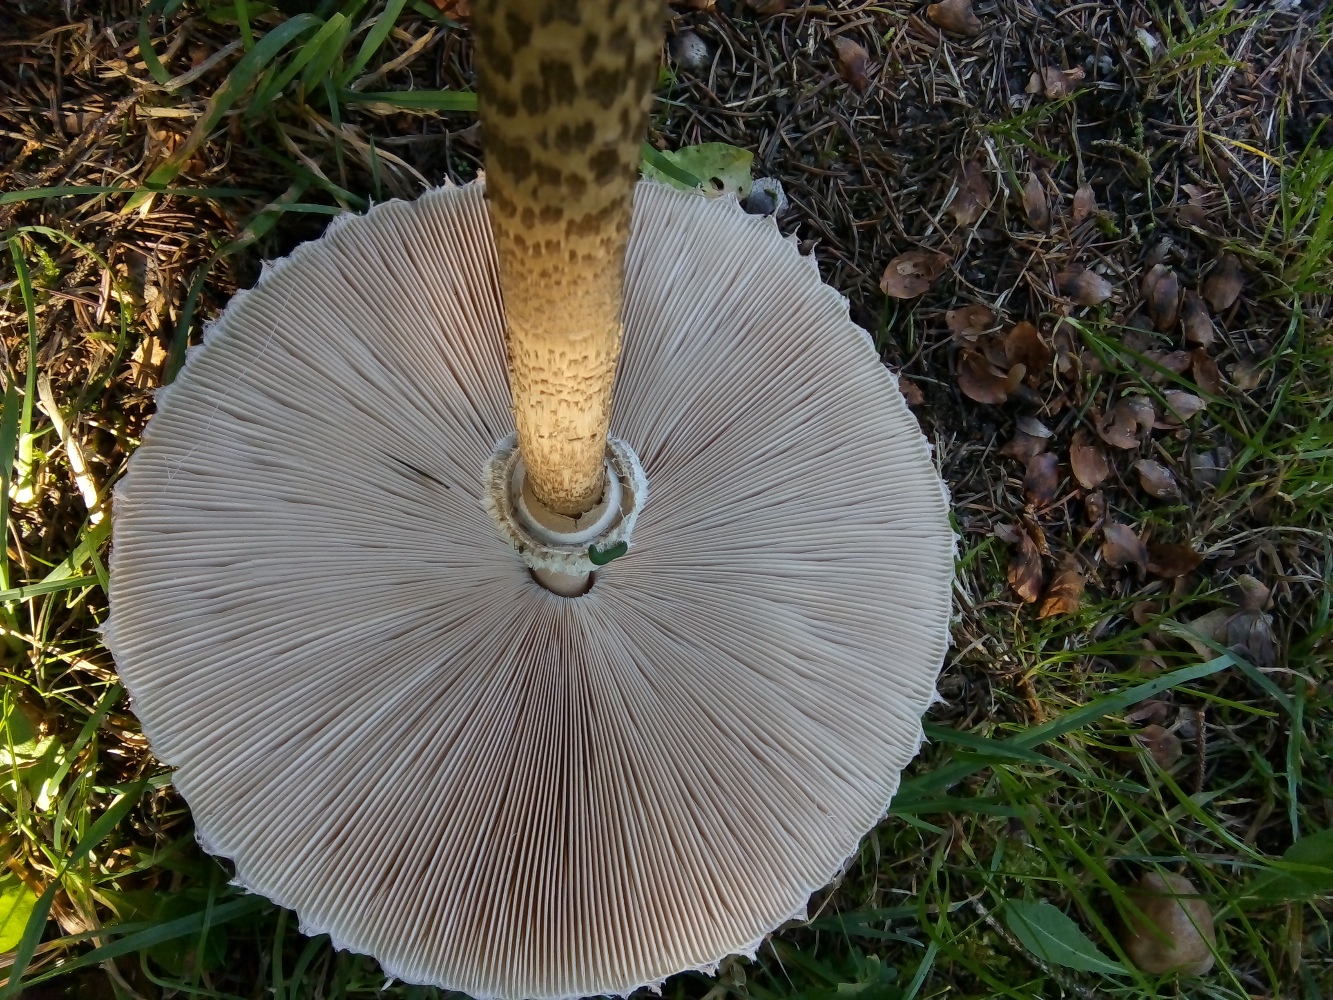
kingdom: Fungi
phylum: Basidiomycota
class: Agaricomycetes
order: Agaricales
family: Agaricaceae
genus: Macrolepiota
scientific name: Macrolepiota procera
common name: stor kæmpeparasolhat
